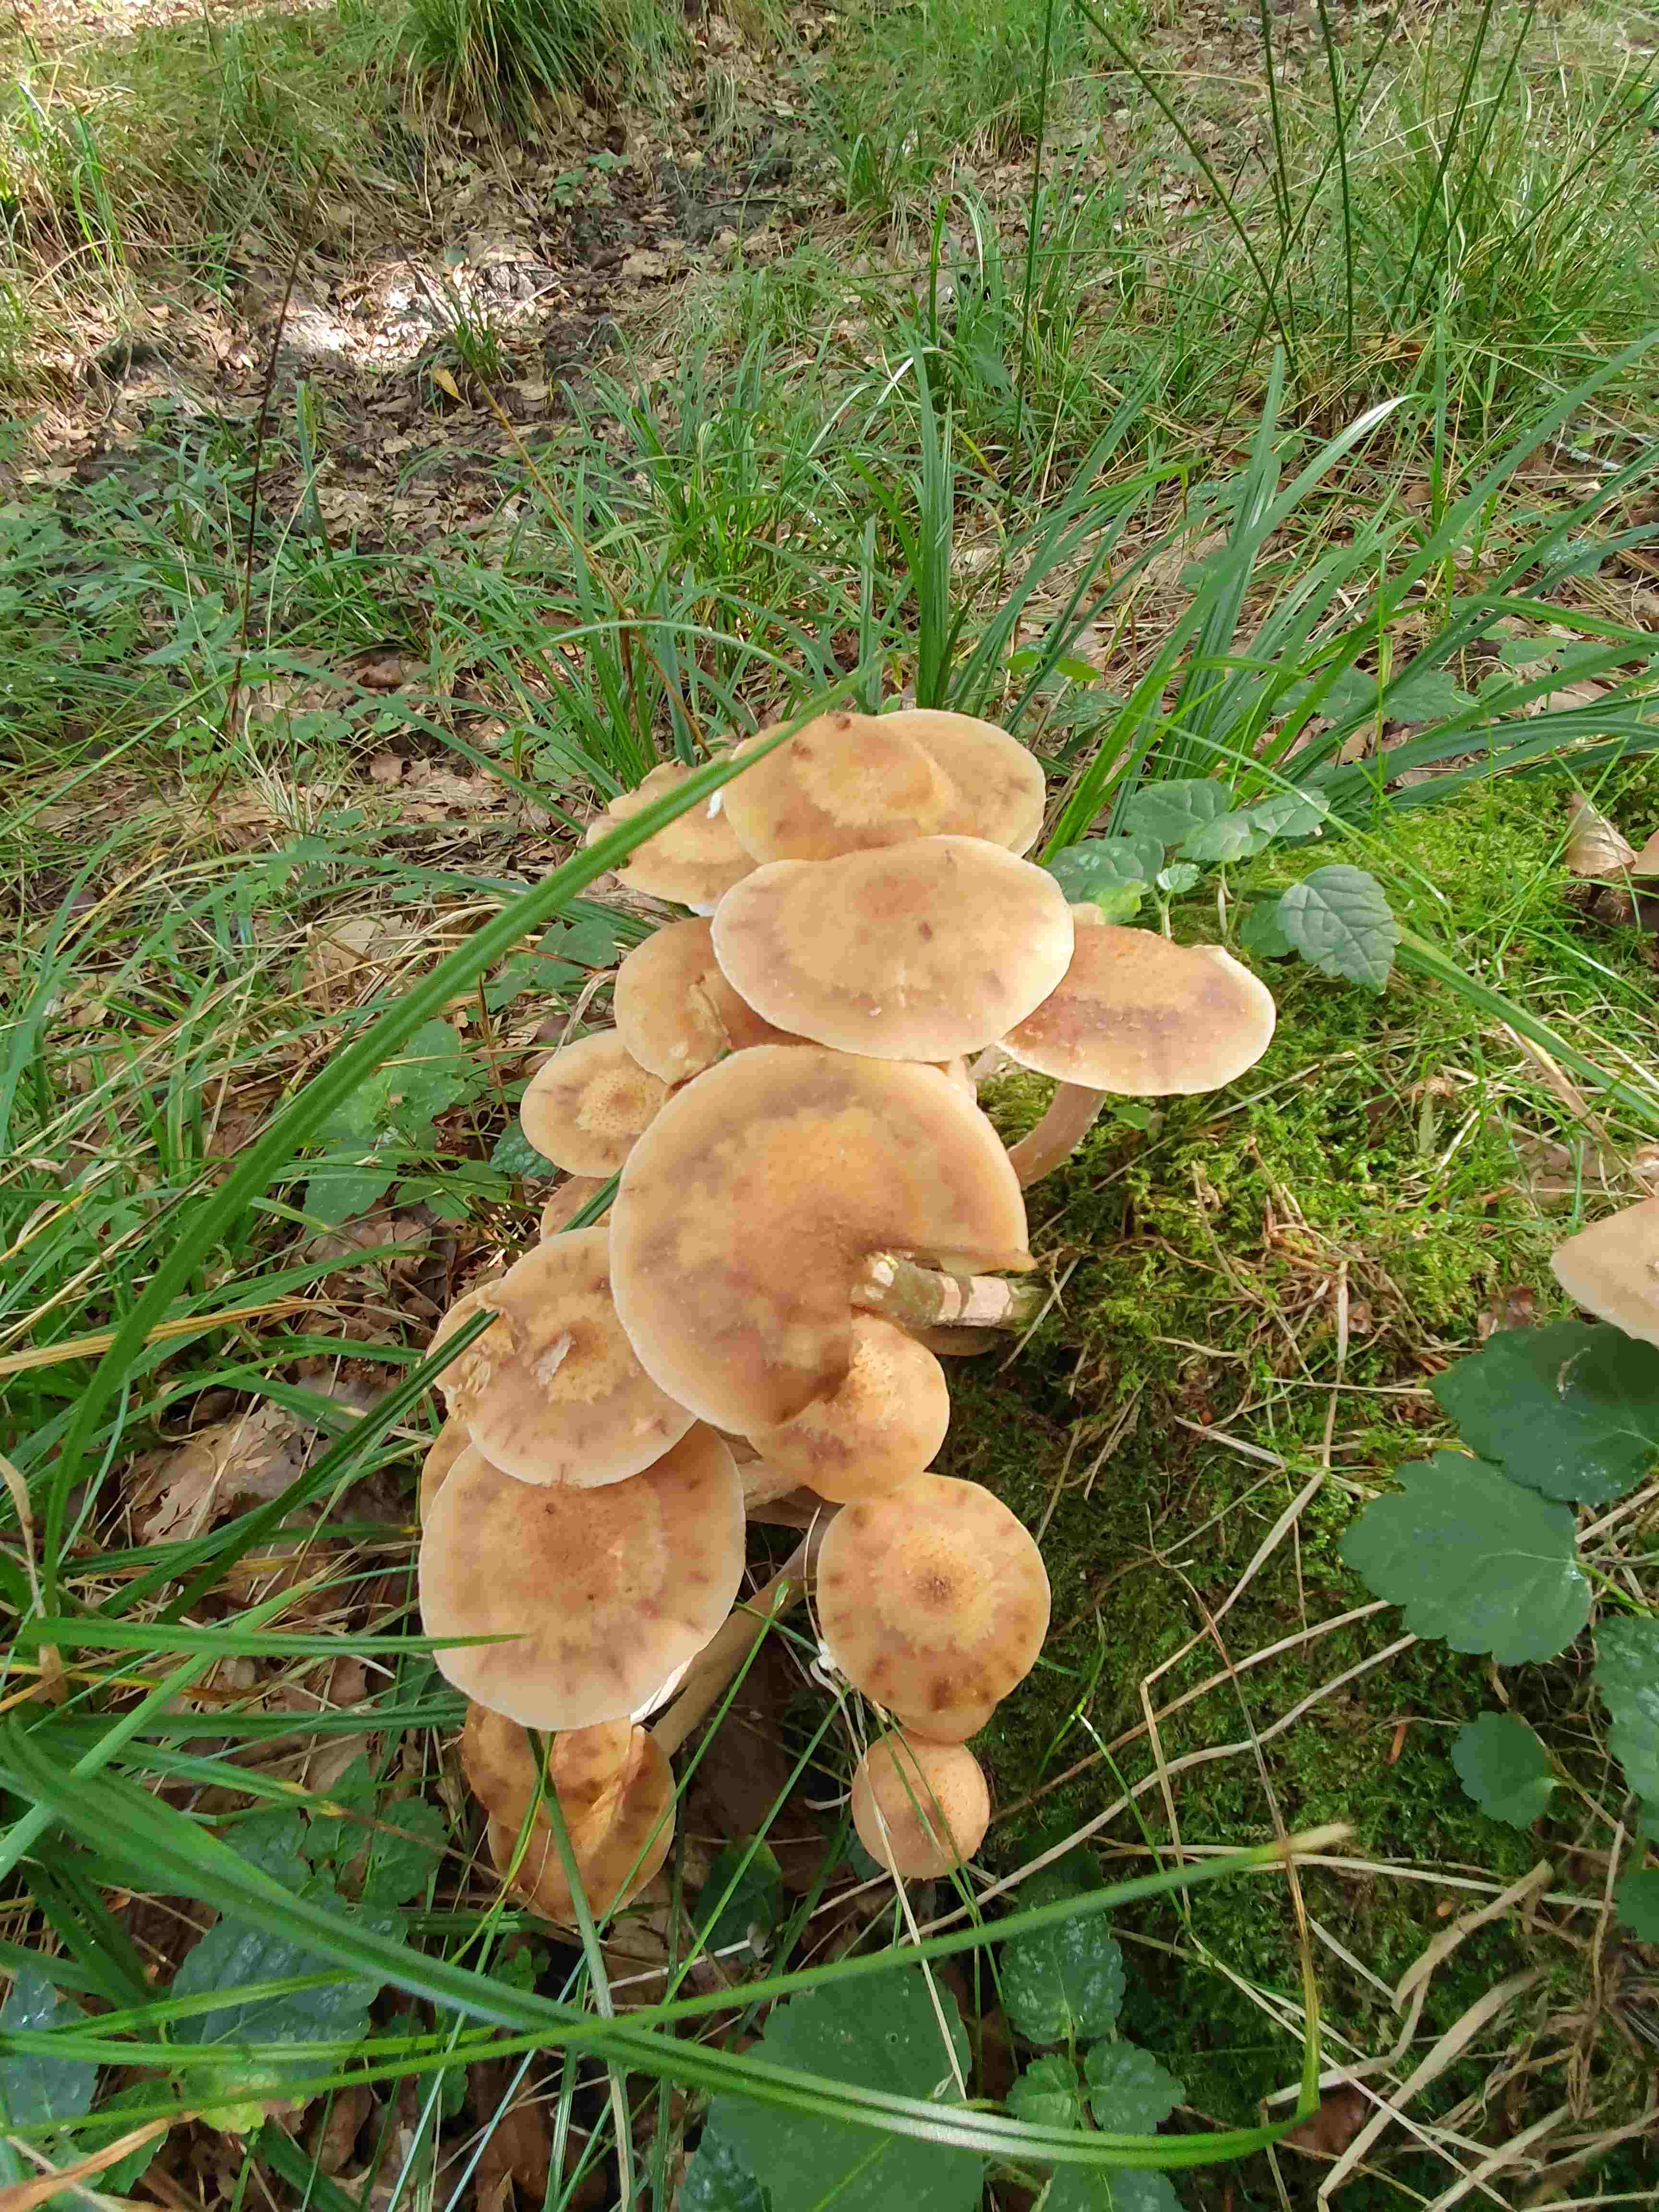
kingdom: Fungi
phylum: Basidiomycota
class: Agaricomycetes
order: Agaricales
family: Physalacriaceae
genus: Armillaria
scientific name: Armillaria mellea
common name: ægte honningsvamp
